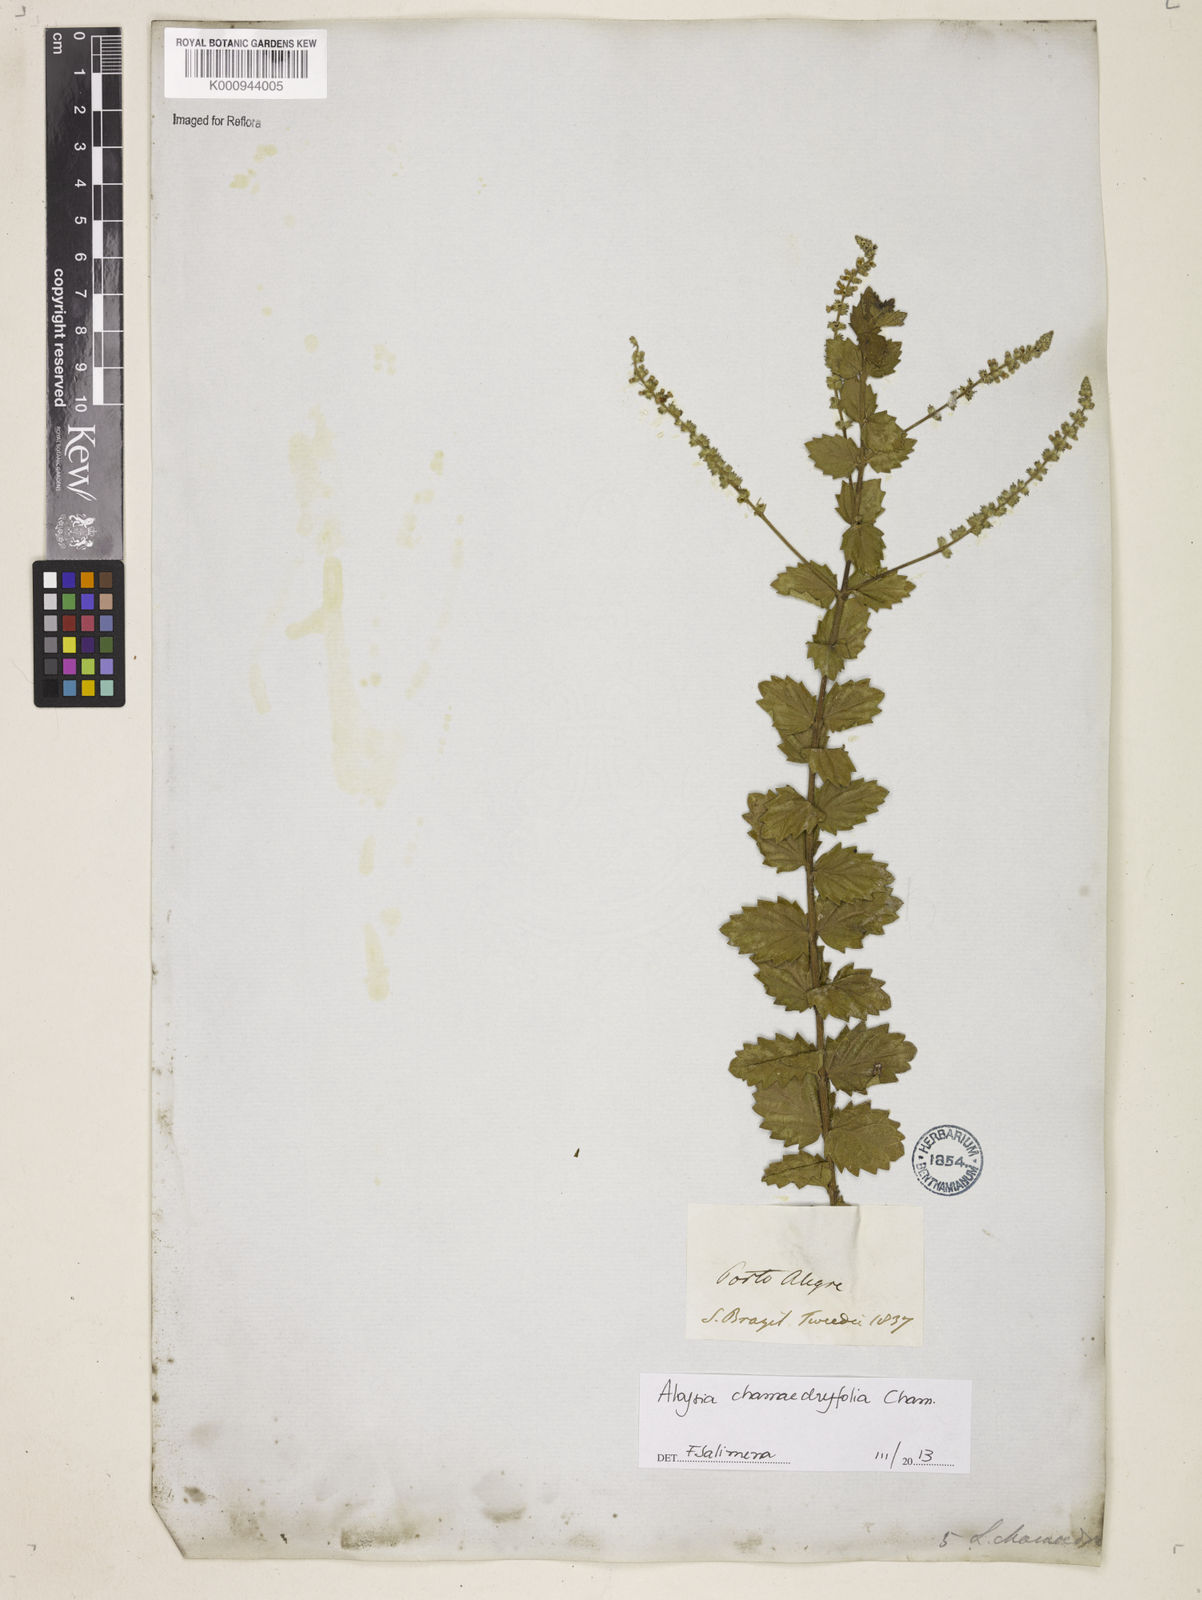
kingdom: Plantae
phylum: Tracheophyta
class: Magnoliopsida
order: Lamiales
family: Verbenaceae
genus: Aloysia
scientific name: Aloysia
